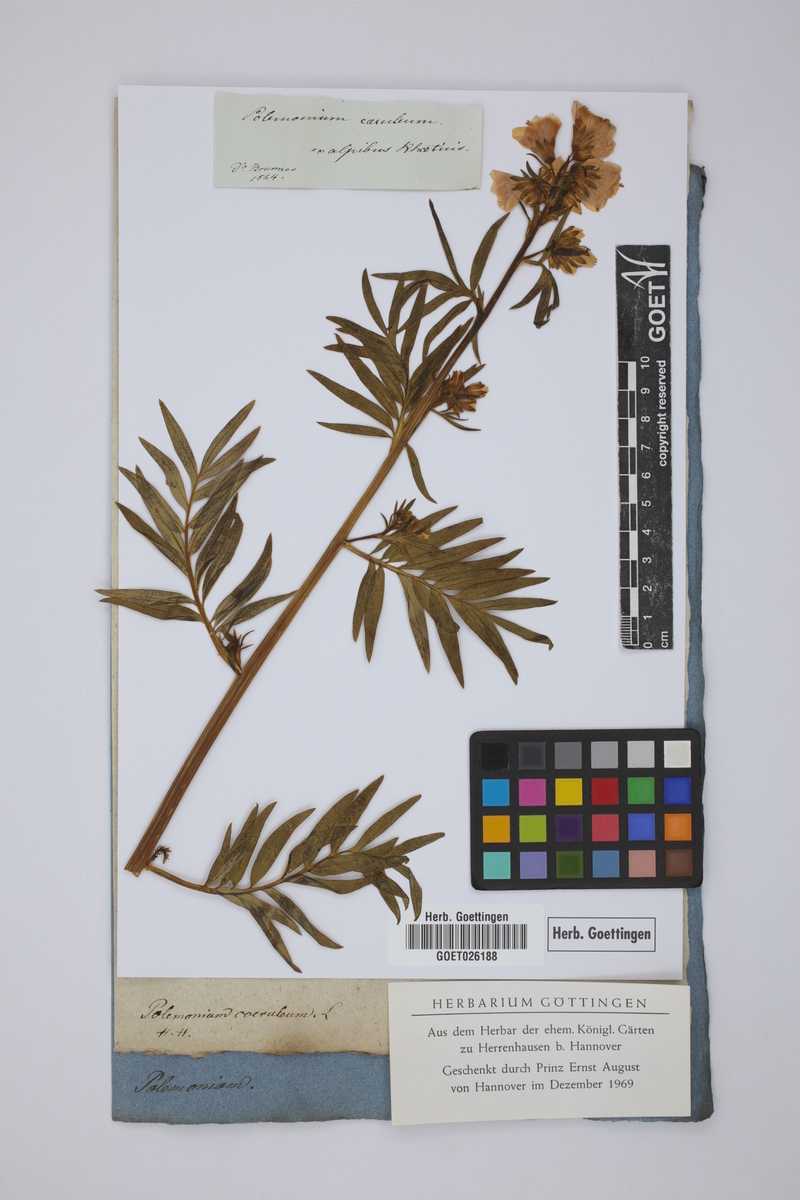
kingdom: Plantae
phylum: Tracheophyta
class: Magnoliopsida
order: Ericales
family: Polemoniaceae
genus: Polemonium
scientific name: Polemonium caeruleum
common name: Jacob's-ladder
